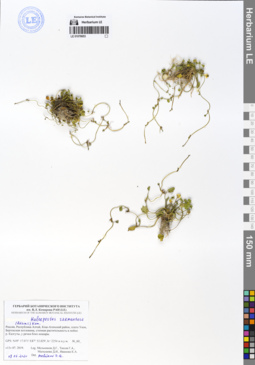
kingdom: Plantae
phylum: Tracheophyta
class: Magnoliopsida
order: Ranunculales
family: Ranunculaceae
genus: Halerpestes
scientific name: Halerpestes sarmentosus
